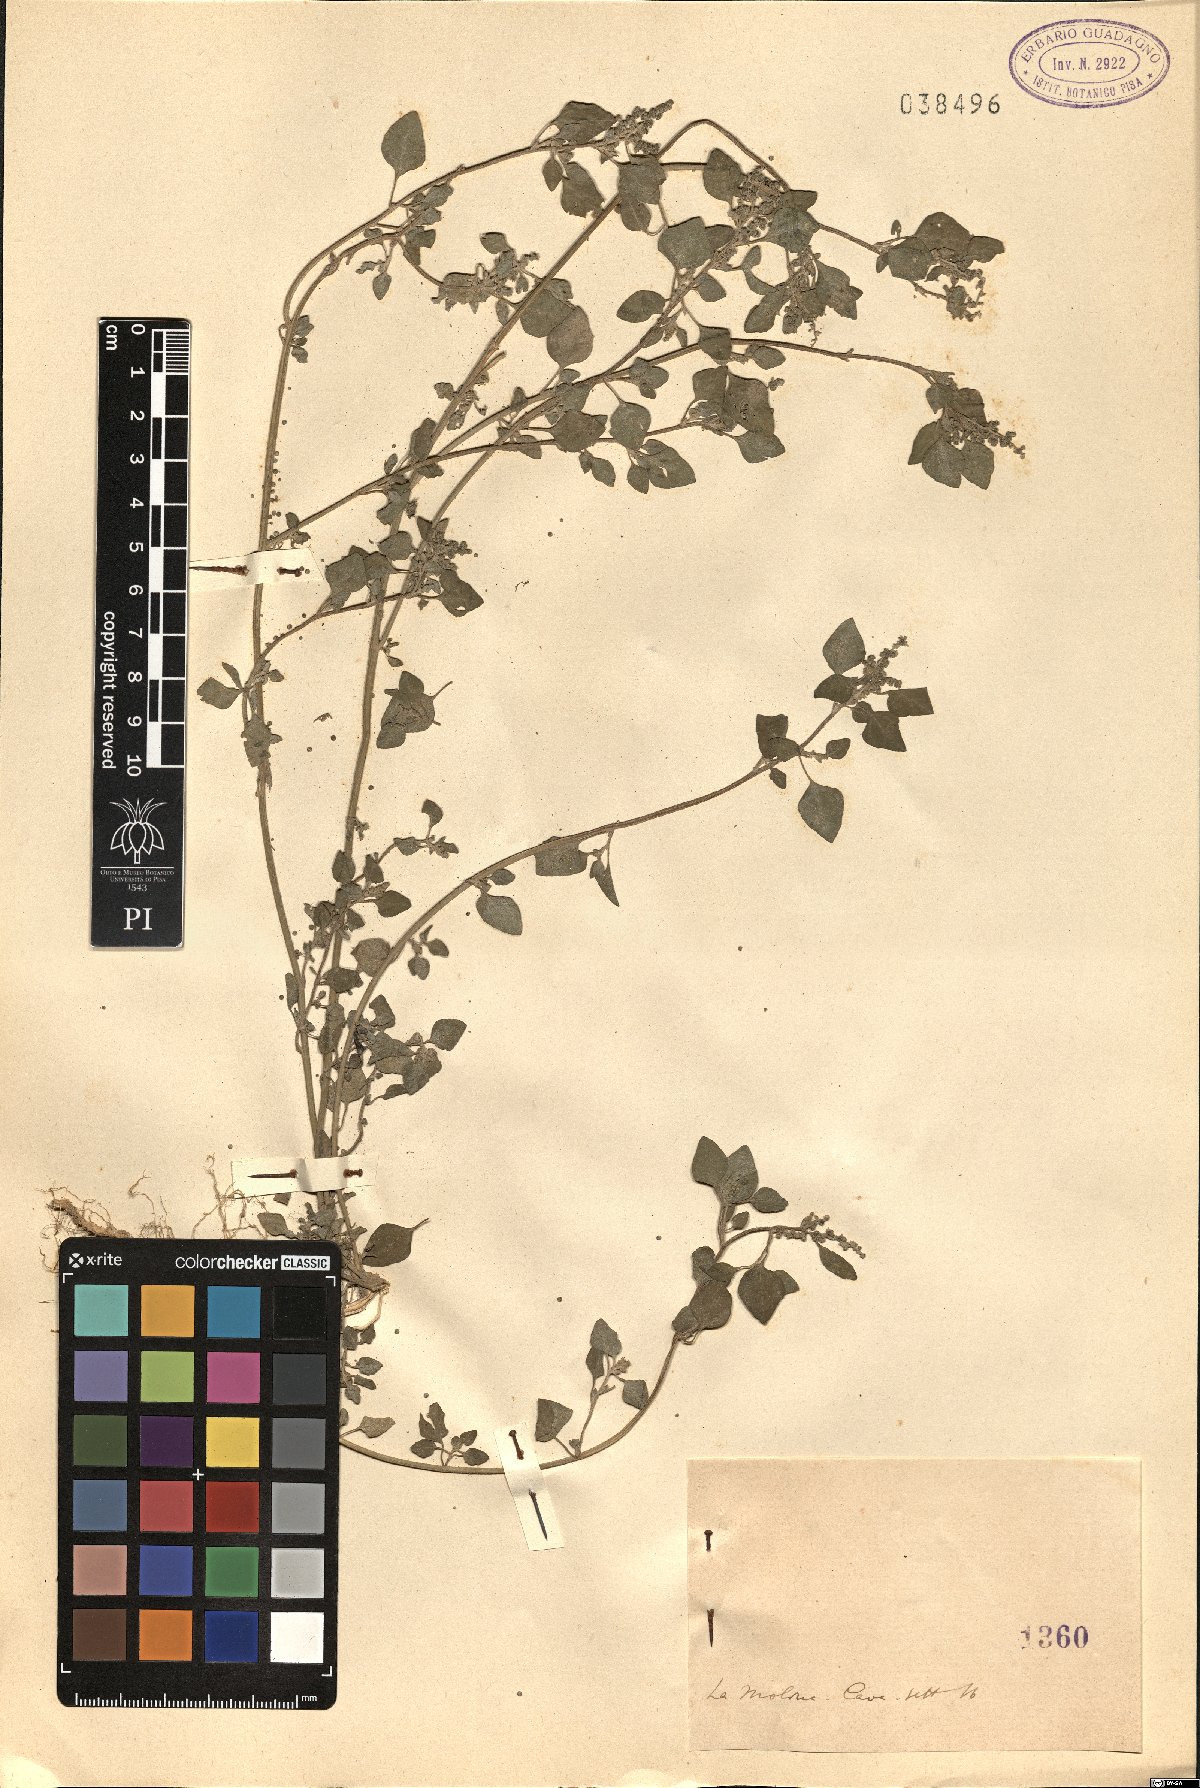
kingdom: Plantae
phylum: Tracheophyta
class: Magnoliopsida
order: Caryophyllales
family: Amaranthaceae
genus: Dysphania
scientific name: Dysphania
